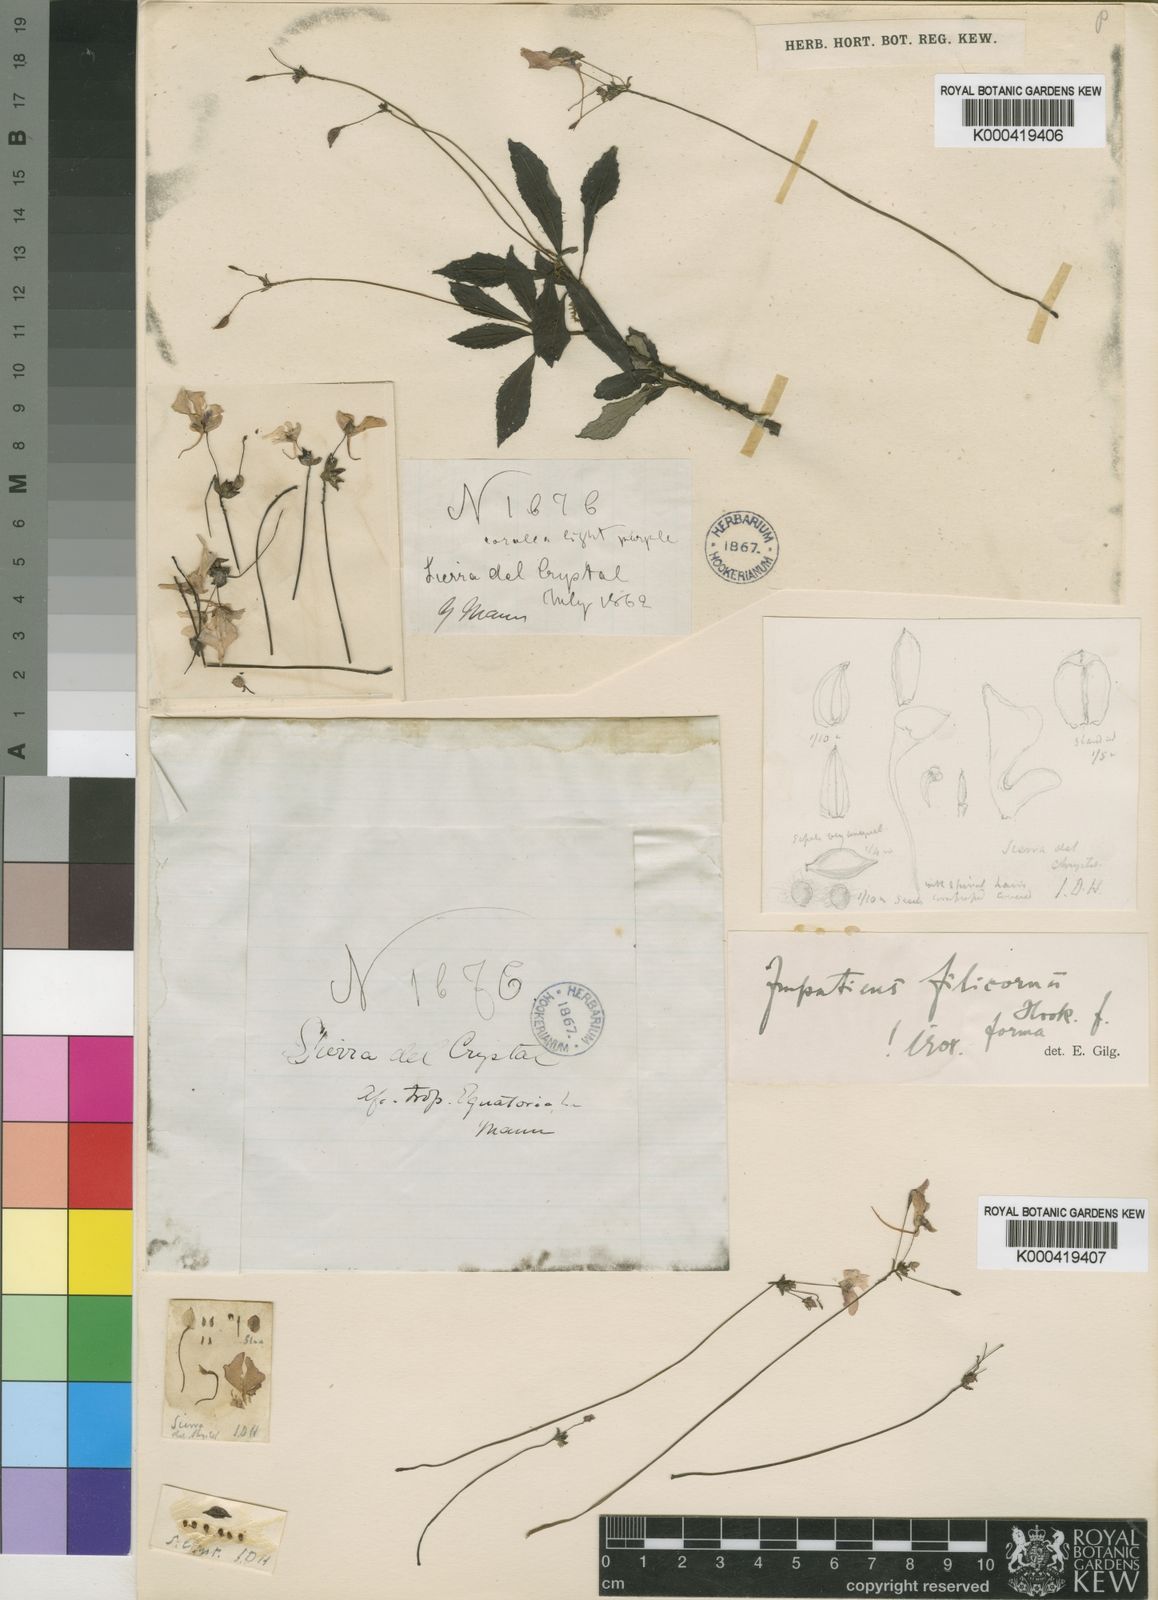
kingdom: Plantae
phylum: Tracheophyta
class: Magnoliopsida
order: Ericales
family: Balsaminaceae
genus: Impatiens
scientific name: Impatiens filicornu
